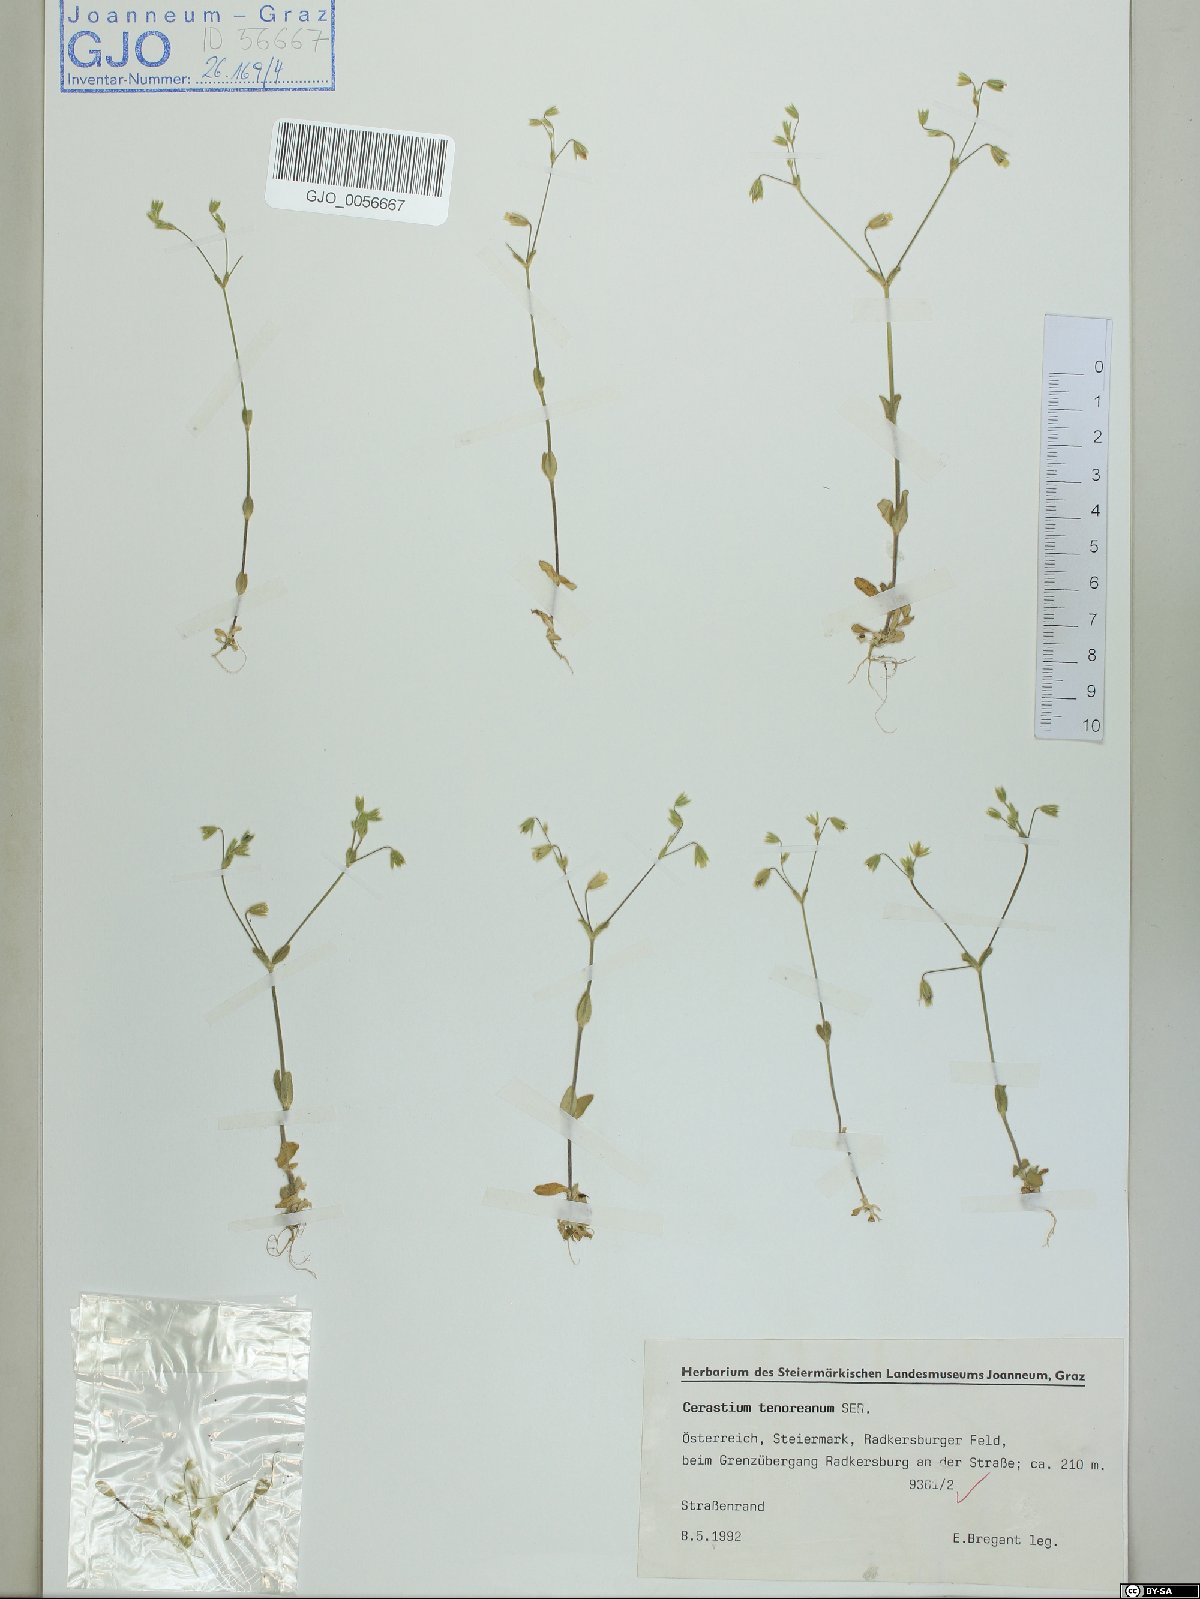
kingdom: Plantae
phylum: Tracheophyta
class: Magnoliopsida
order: Caryophyllales
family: Caryophyllaceae
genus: Cerastium
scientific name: Cerastium tenoreanum
